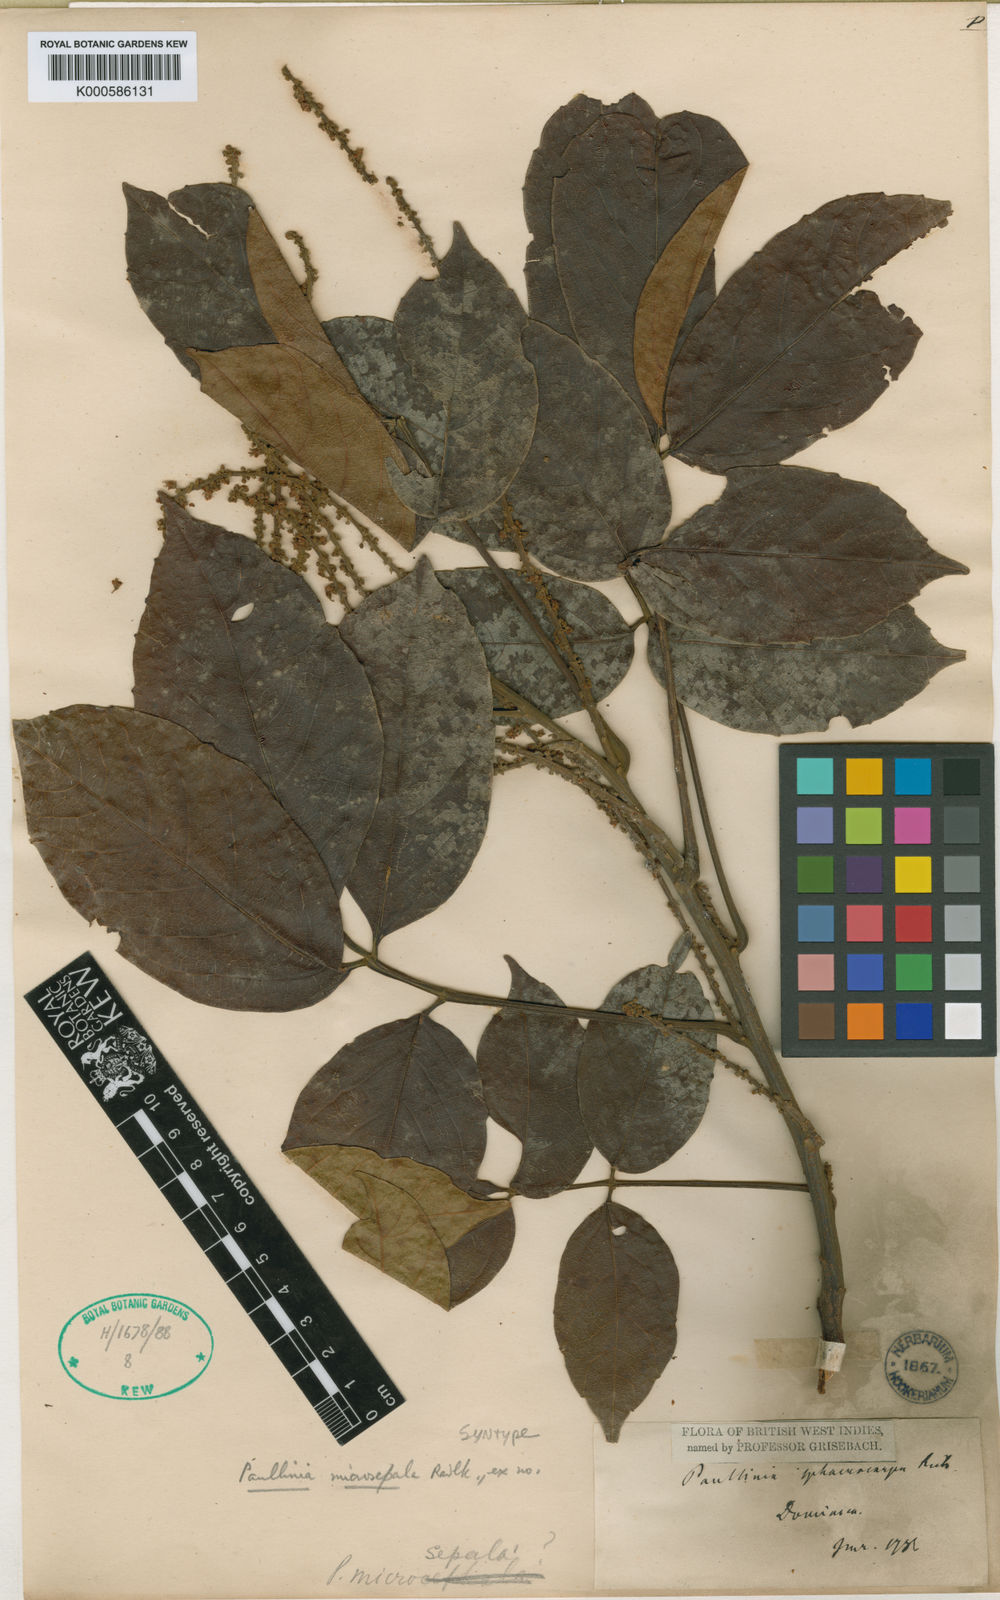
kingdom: Plantae
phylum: Tracheophyta
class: Magnoliopsida
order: Sapindales
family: Sapindaceae
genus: Paullinia
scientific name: Paullinia vespertilio
